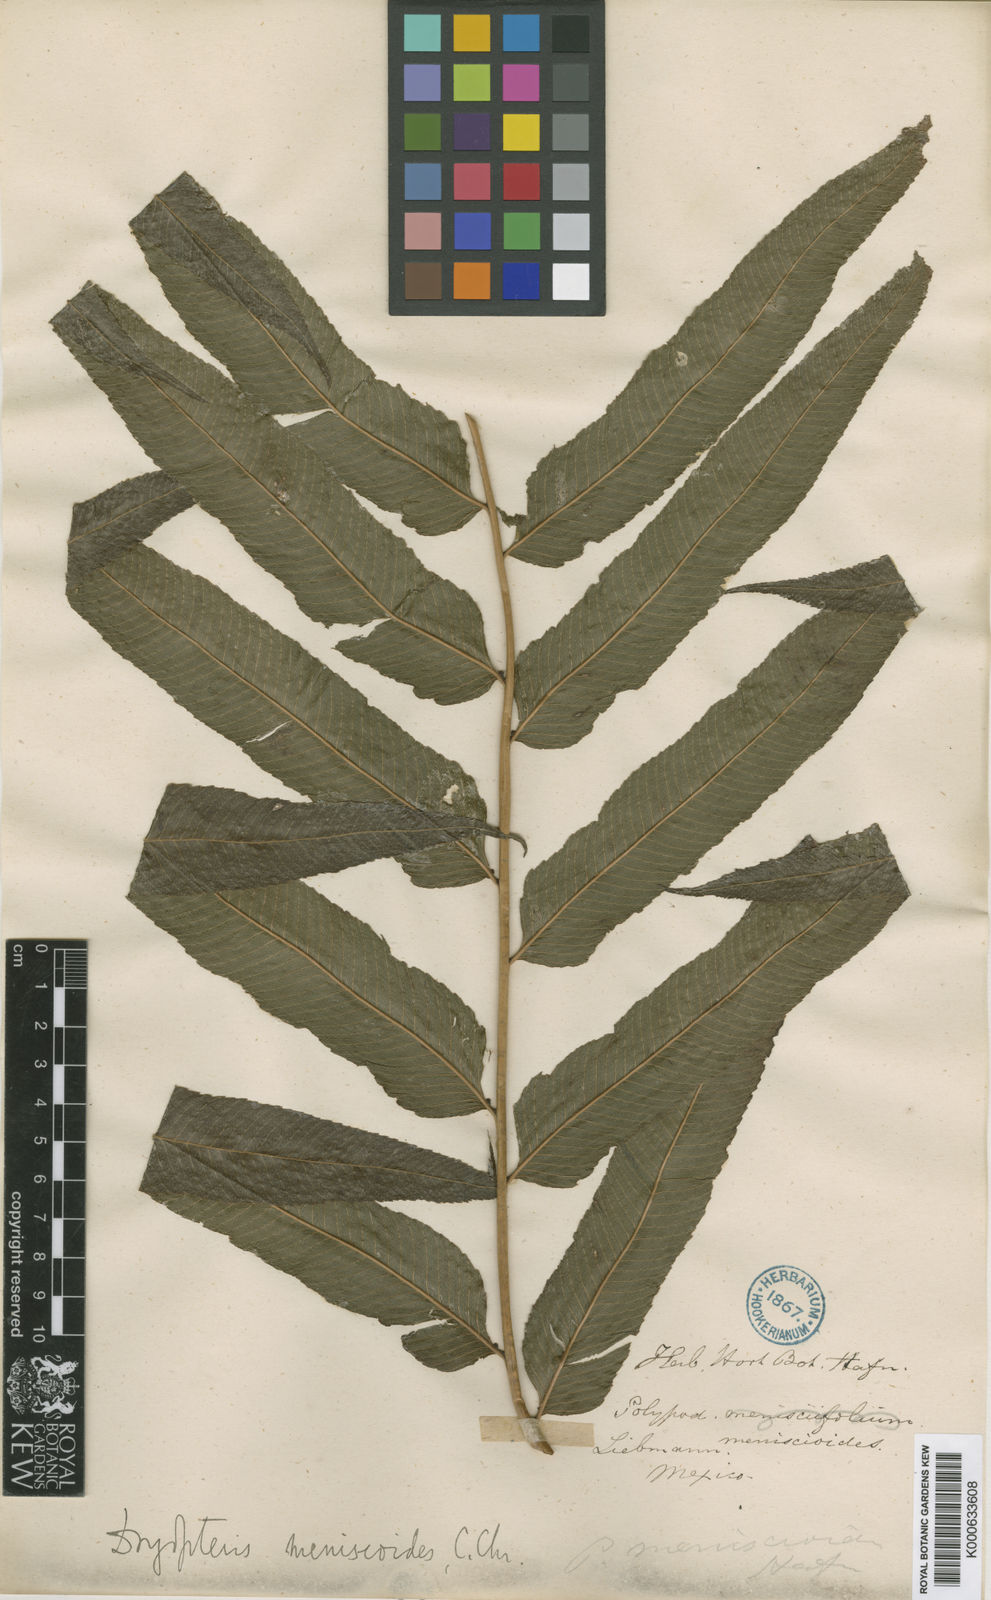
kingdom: Plantae
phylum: Tracheophyta
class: Polypodiopsida
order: Polypodiales
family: Thelypteridaceae
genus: Goniopteris
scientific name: Goniopteris
